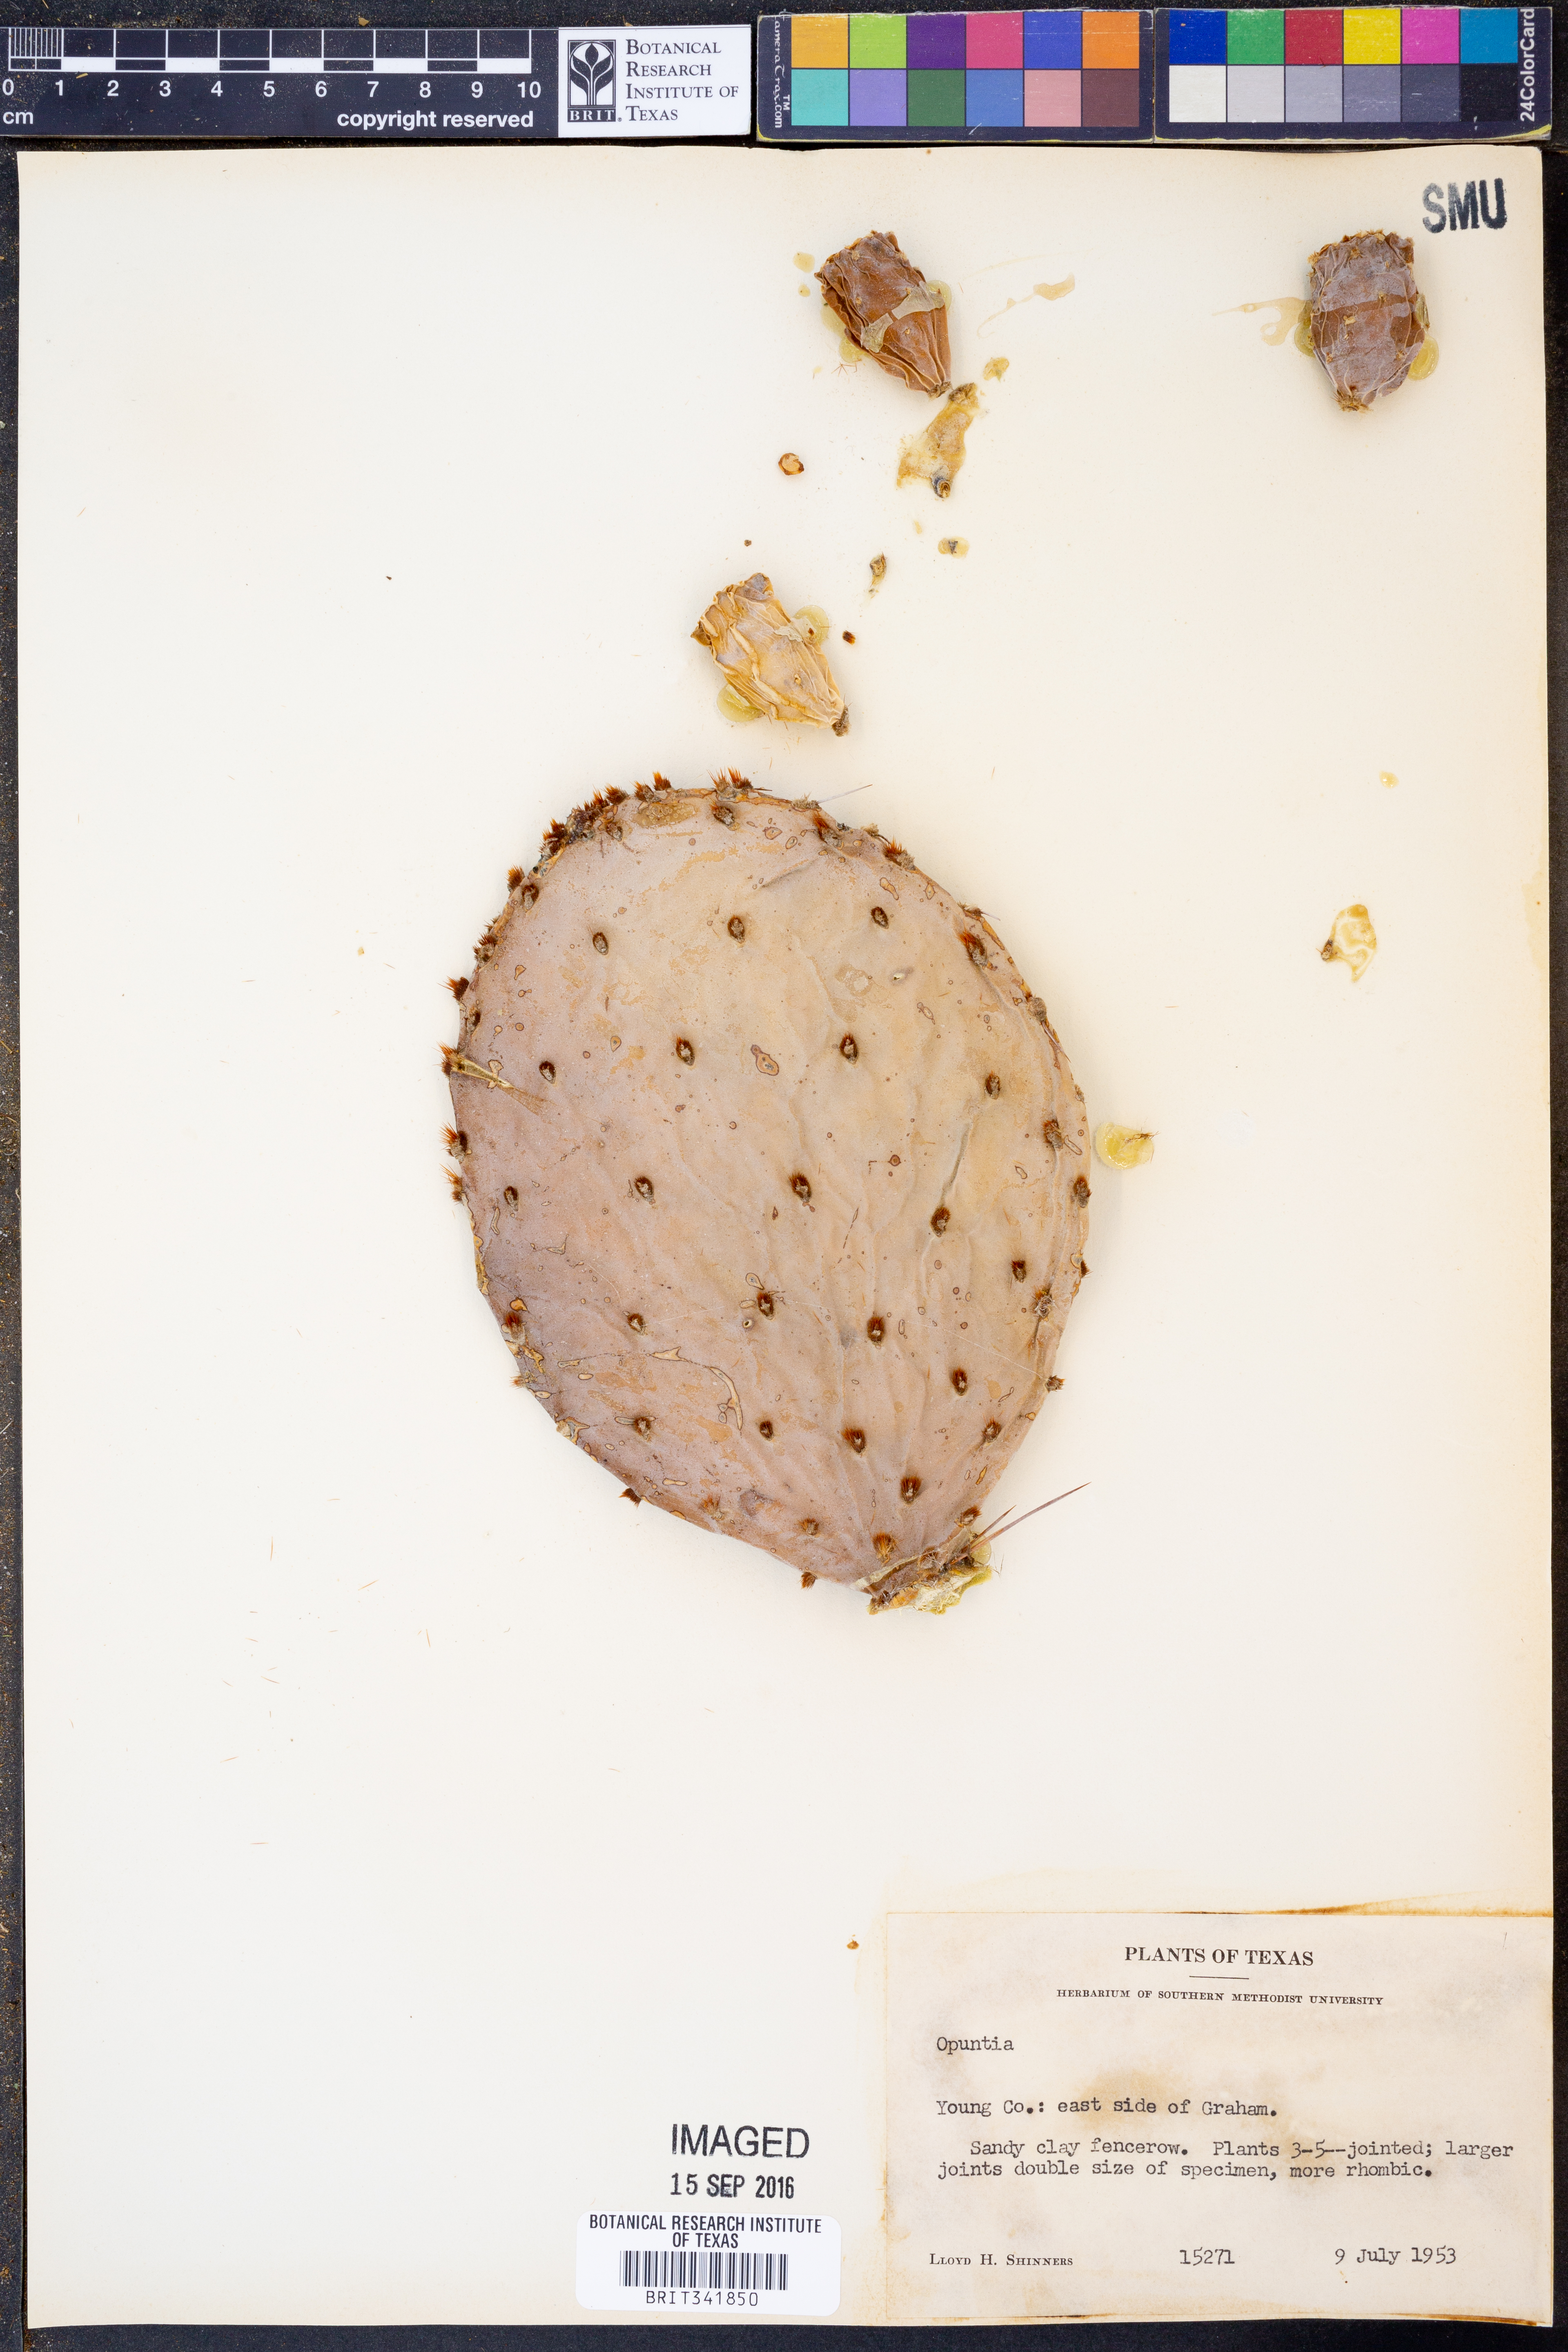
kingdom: Plantae
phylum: Tracheophyta
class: Magnoliopsida
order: Caryophyllales
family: Cactaceae
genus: Opuntia
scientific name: Opuntia
